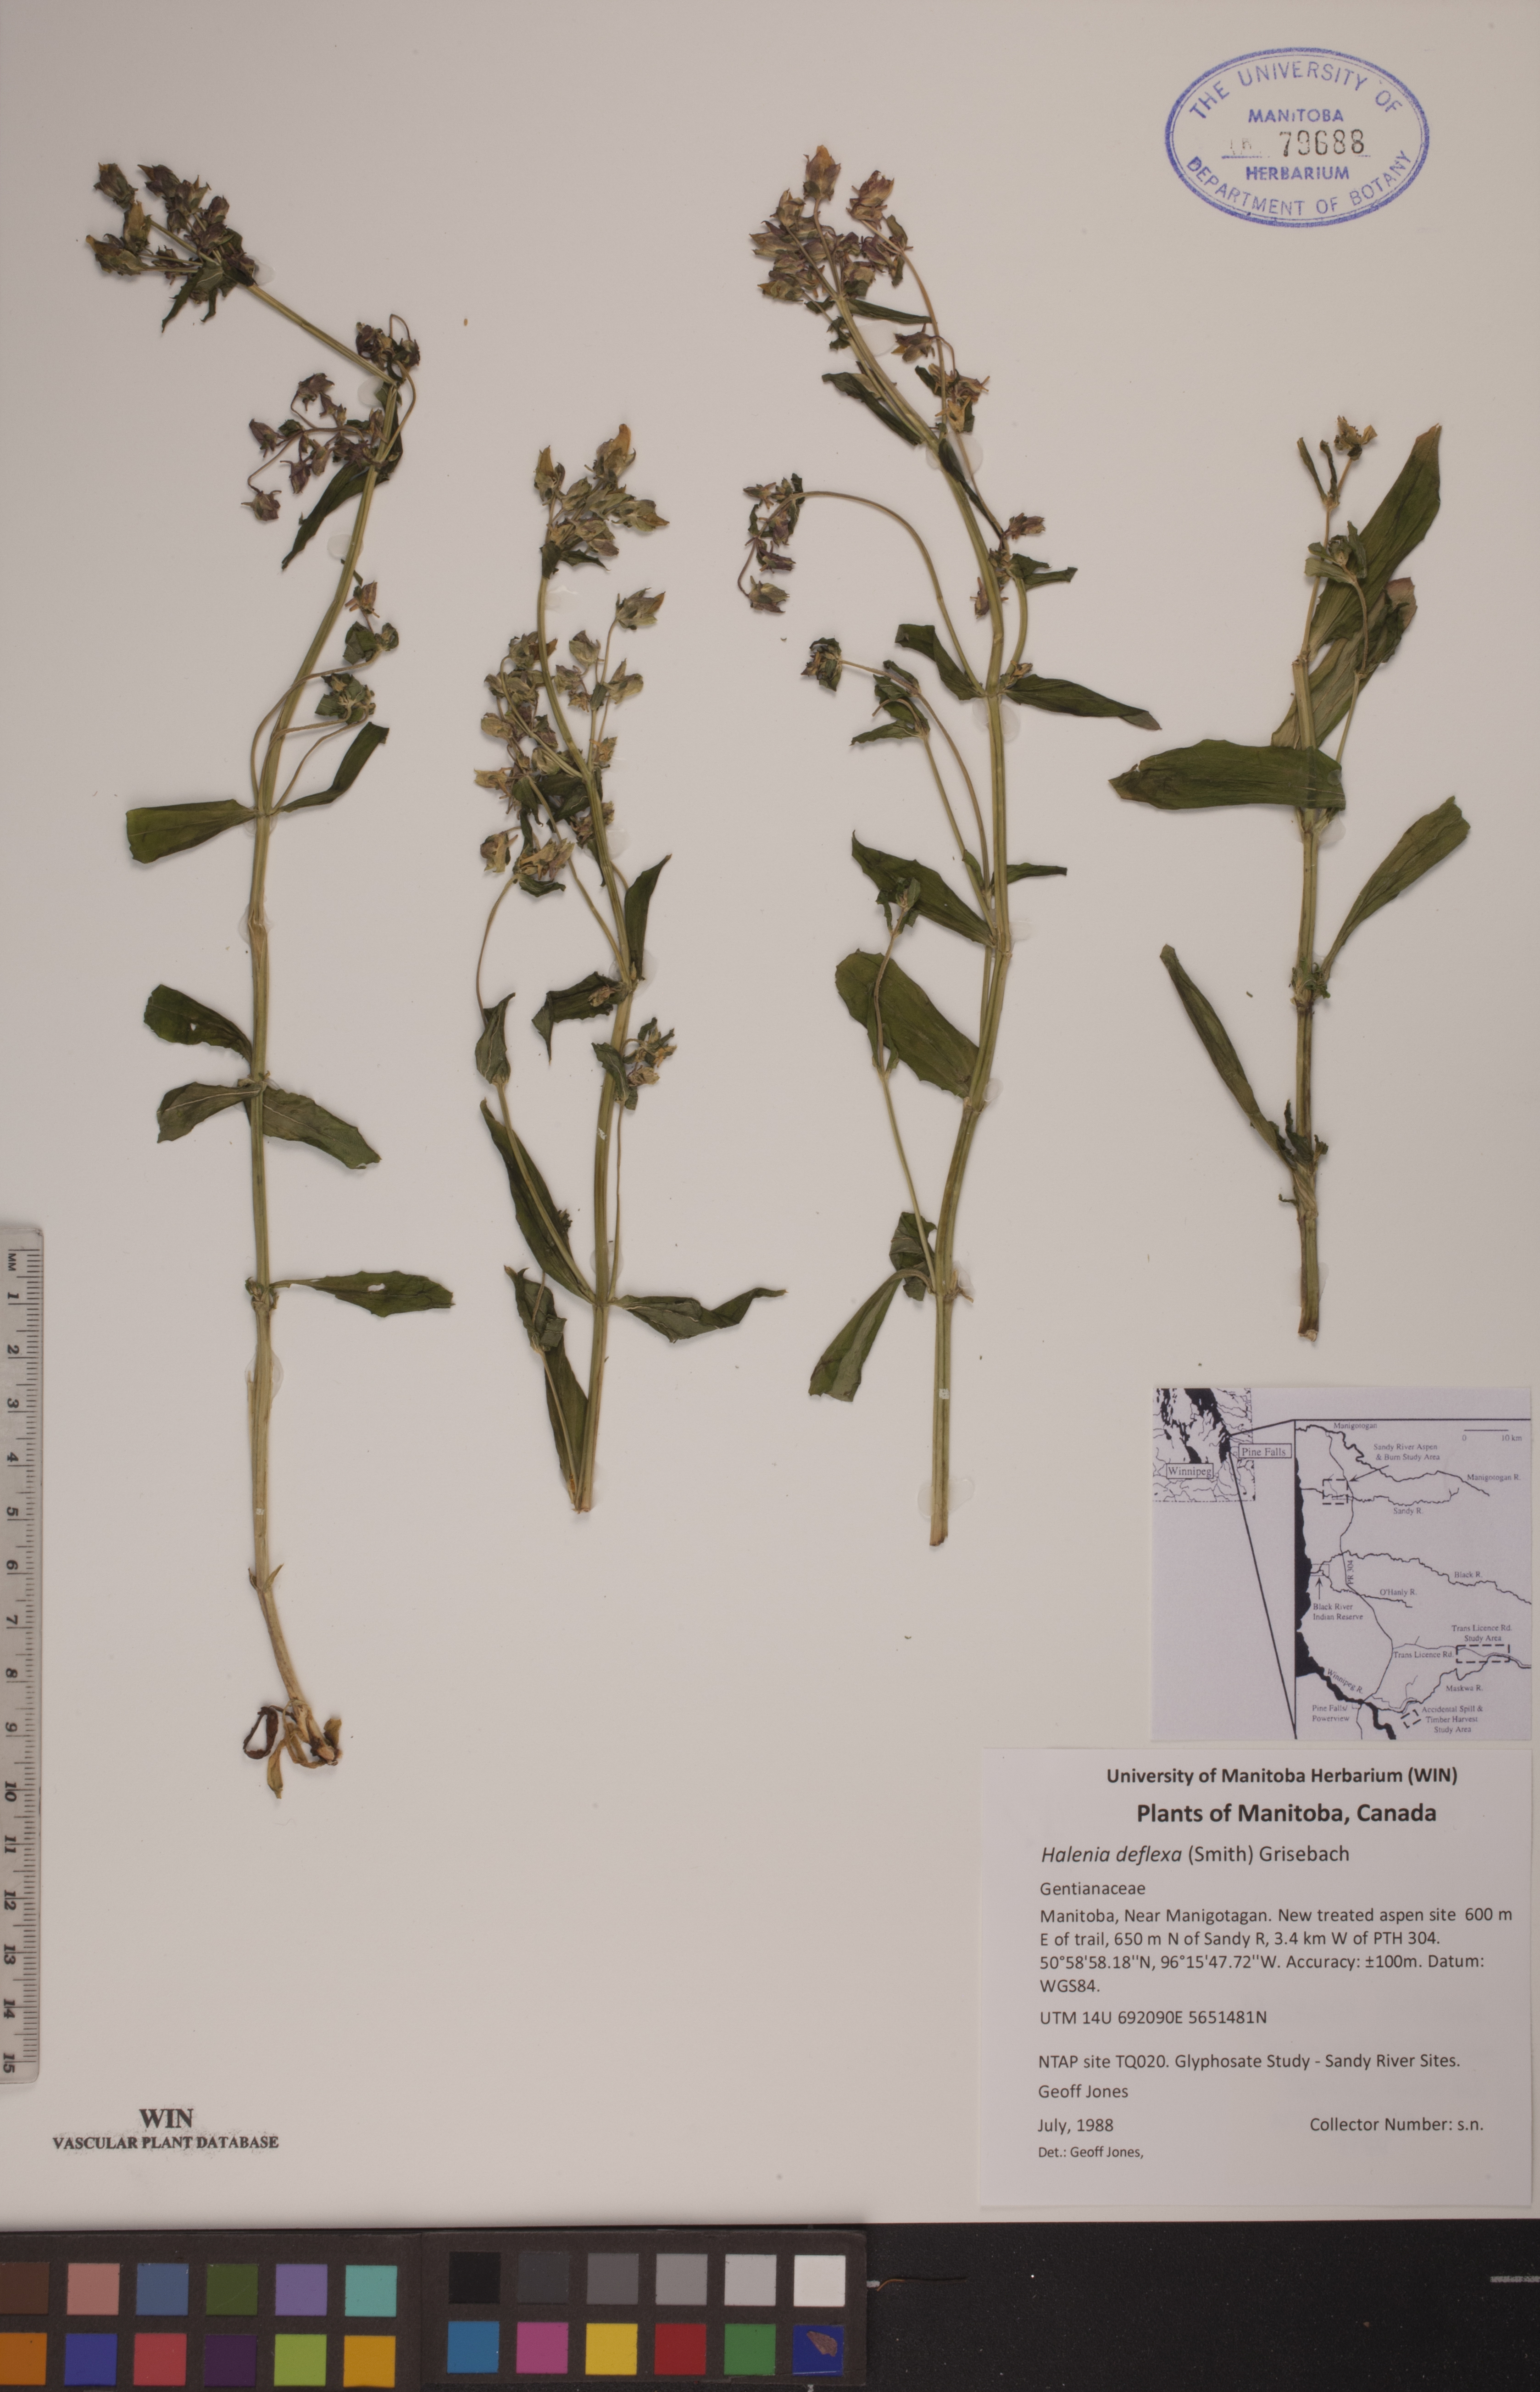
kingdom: Plantae
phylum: Tracheophyta
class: Magnoliopsida
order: Gentianales
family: Gentianaceae
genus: Halenia
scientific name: Halenia deflexa
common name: American spurred gentian
